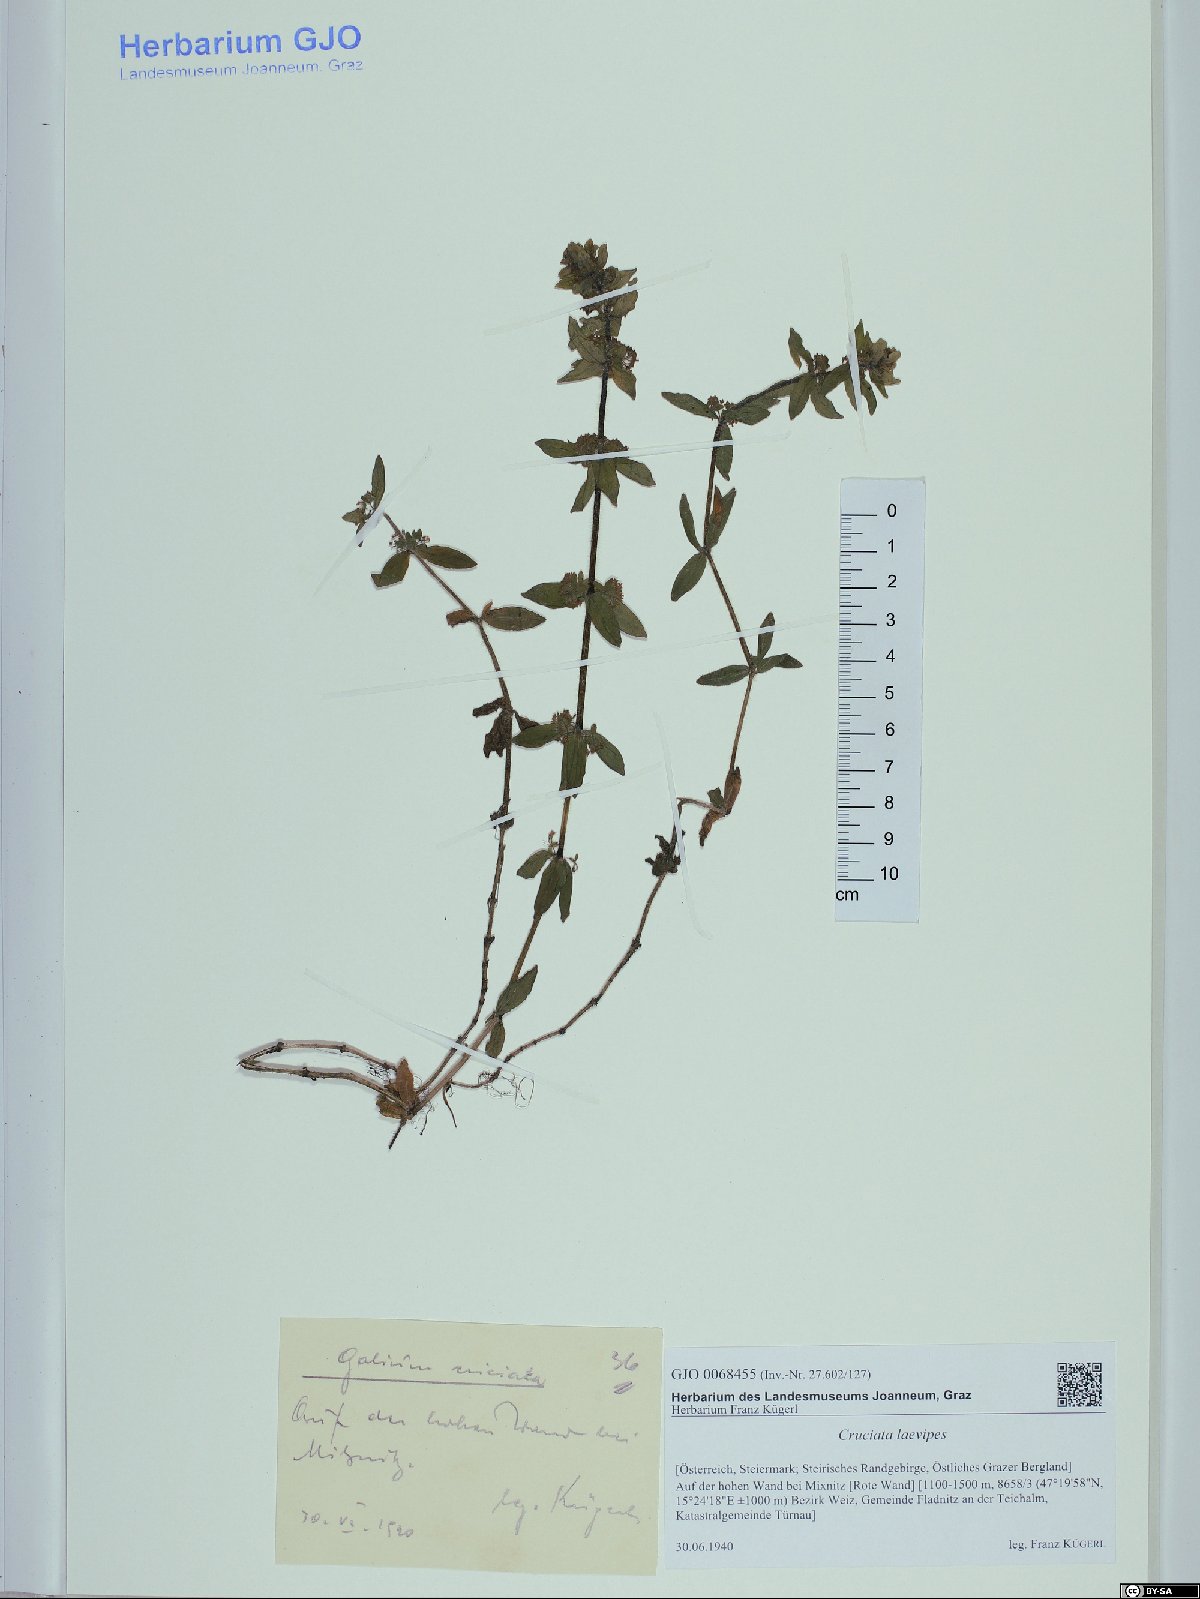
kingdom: Plantae
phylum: Tracheophyta
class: Magnoliopsida
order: Gentianales
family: Rubiaceae
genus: Cruciata
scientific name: Cruciata laevipes
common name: Crosswort
